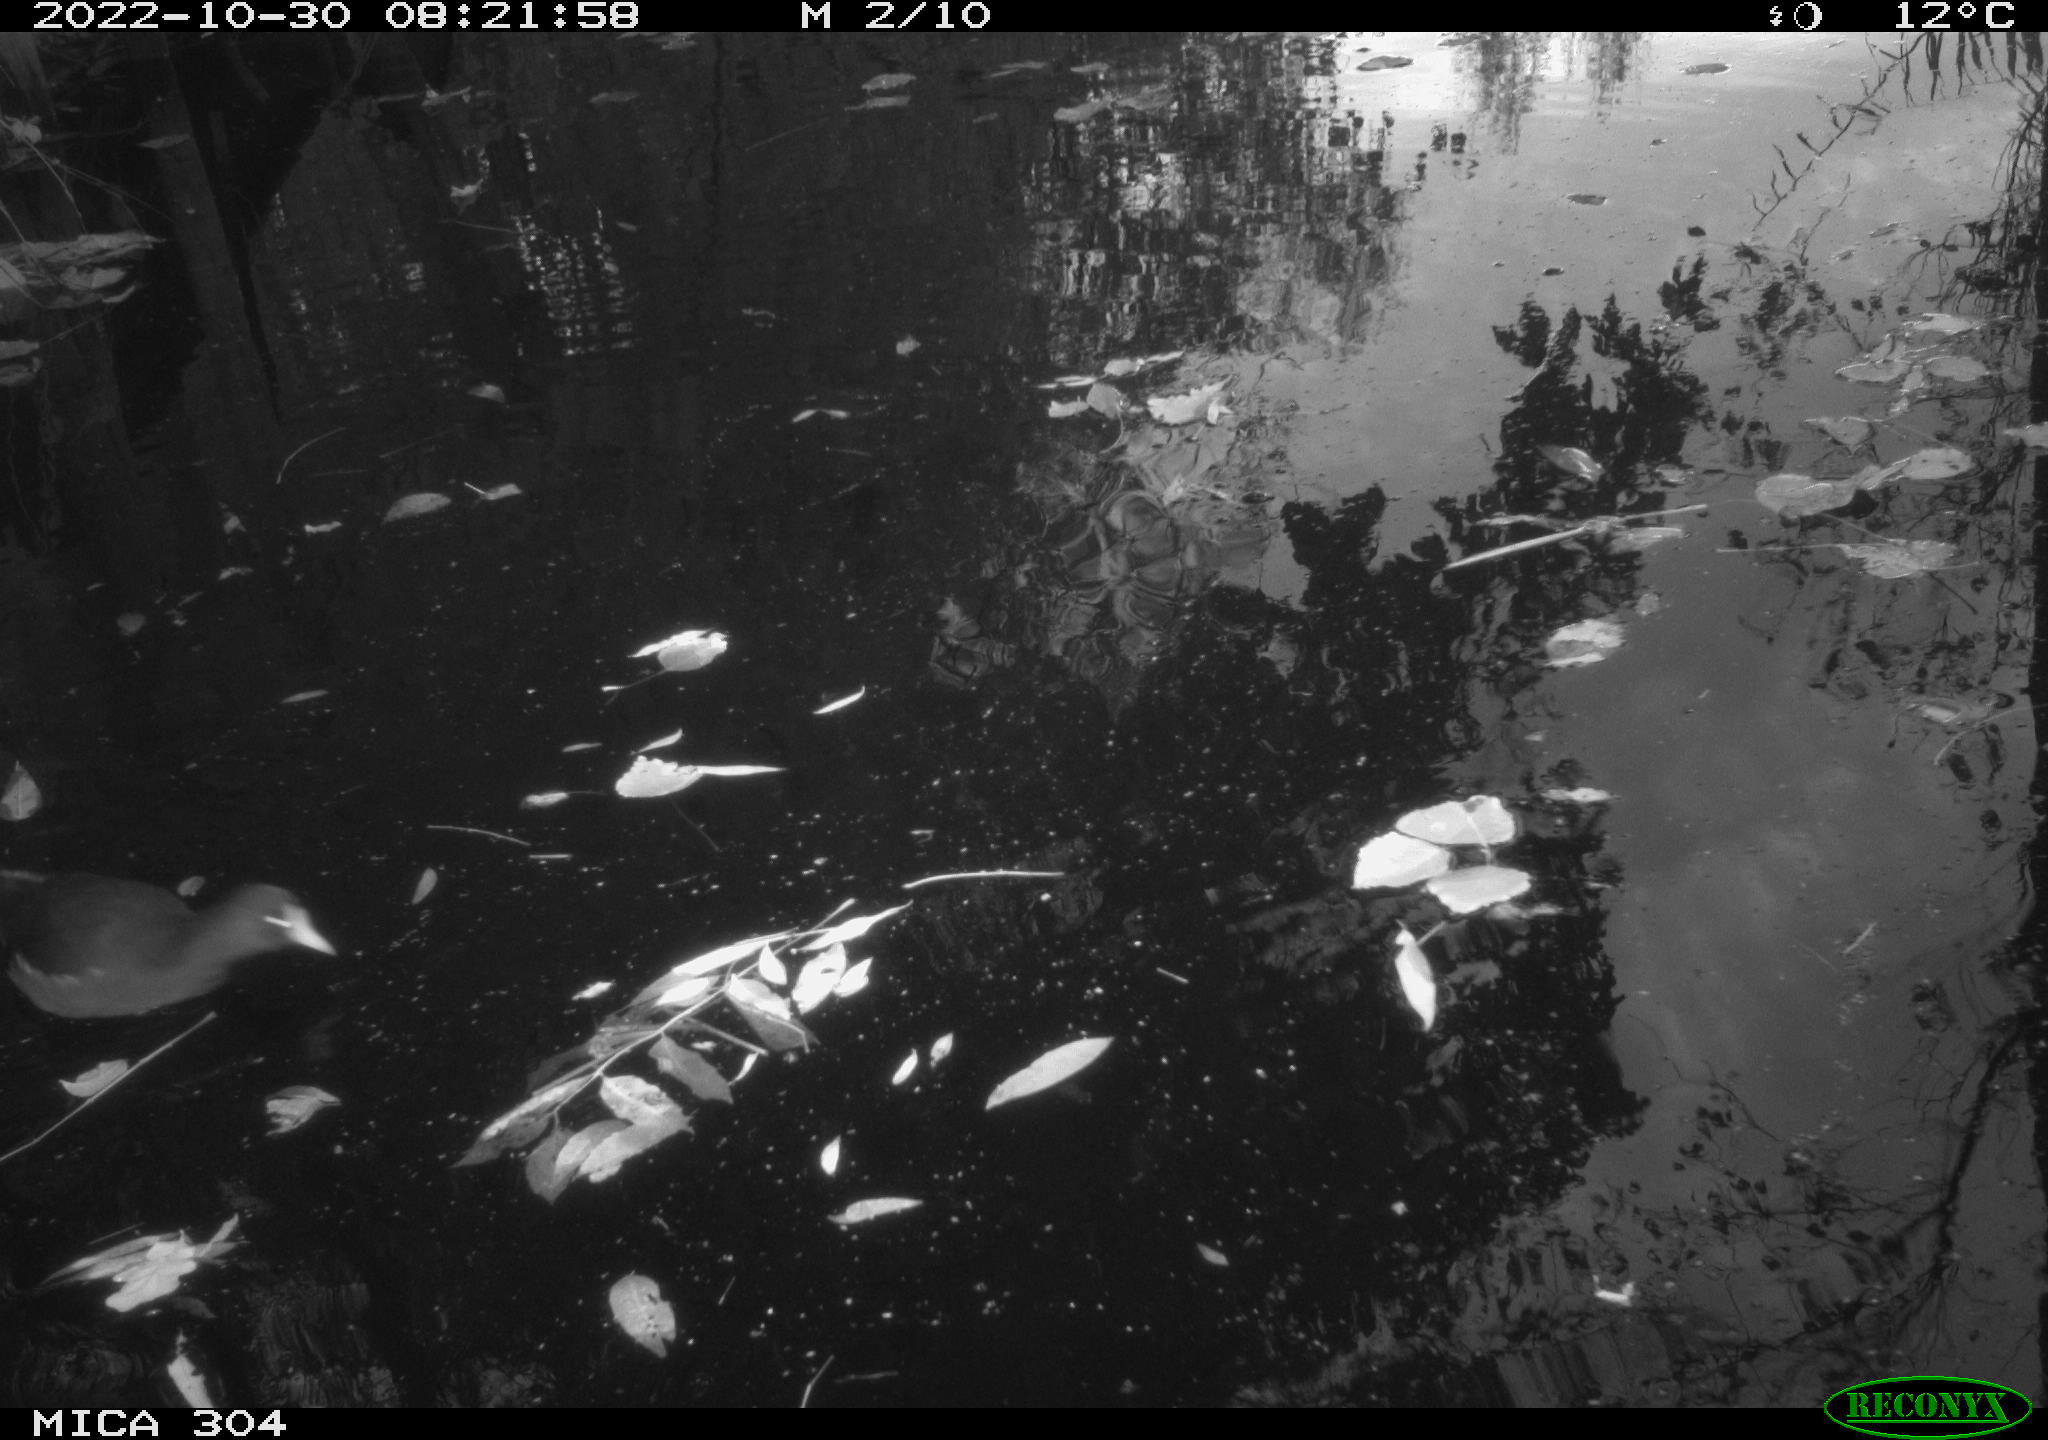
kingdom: Animalia
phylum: Chordata
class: Aves
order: Gruiformes
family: Rallidae
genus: Gallinula
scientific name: Gallinula chloropus
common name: Common moorhen
